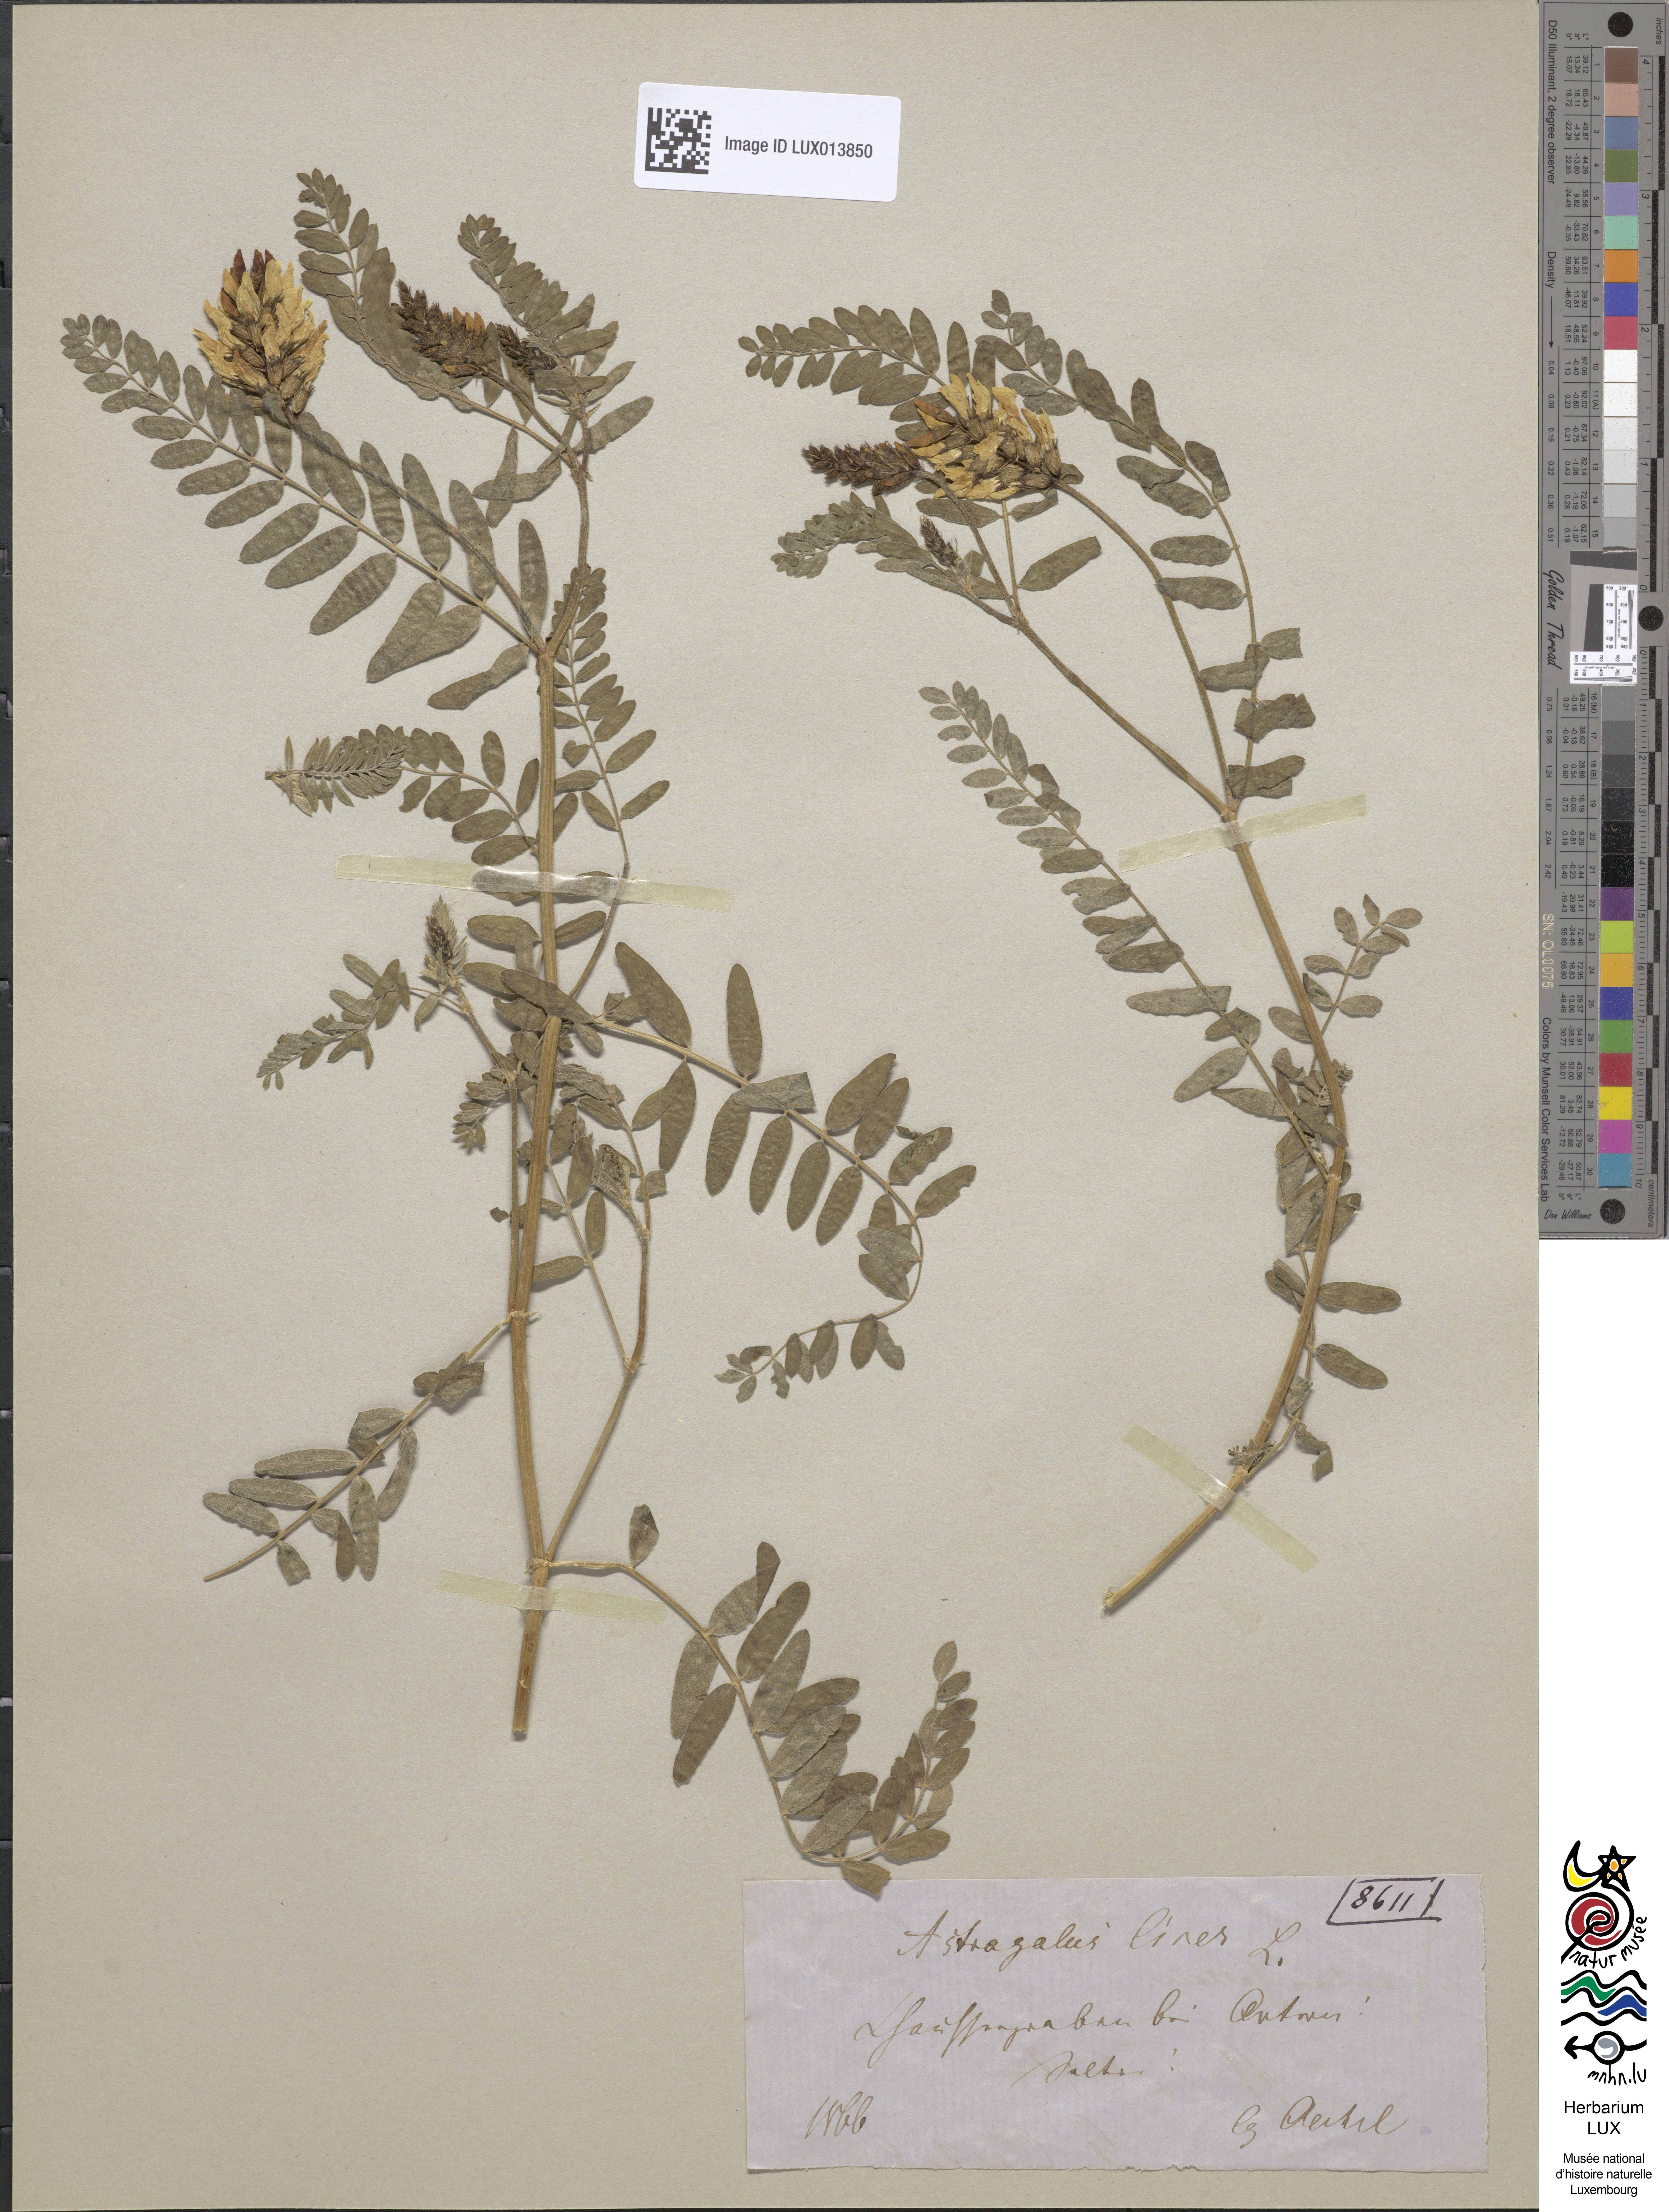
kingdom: Plantae
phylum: Tracheophyta
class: Magnoliopsida
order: Fabales
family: Fabaceae
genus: Astragalus
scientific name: Astragalus cicer
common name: Chick-pea milk-vetch
